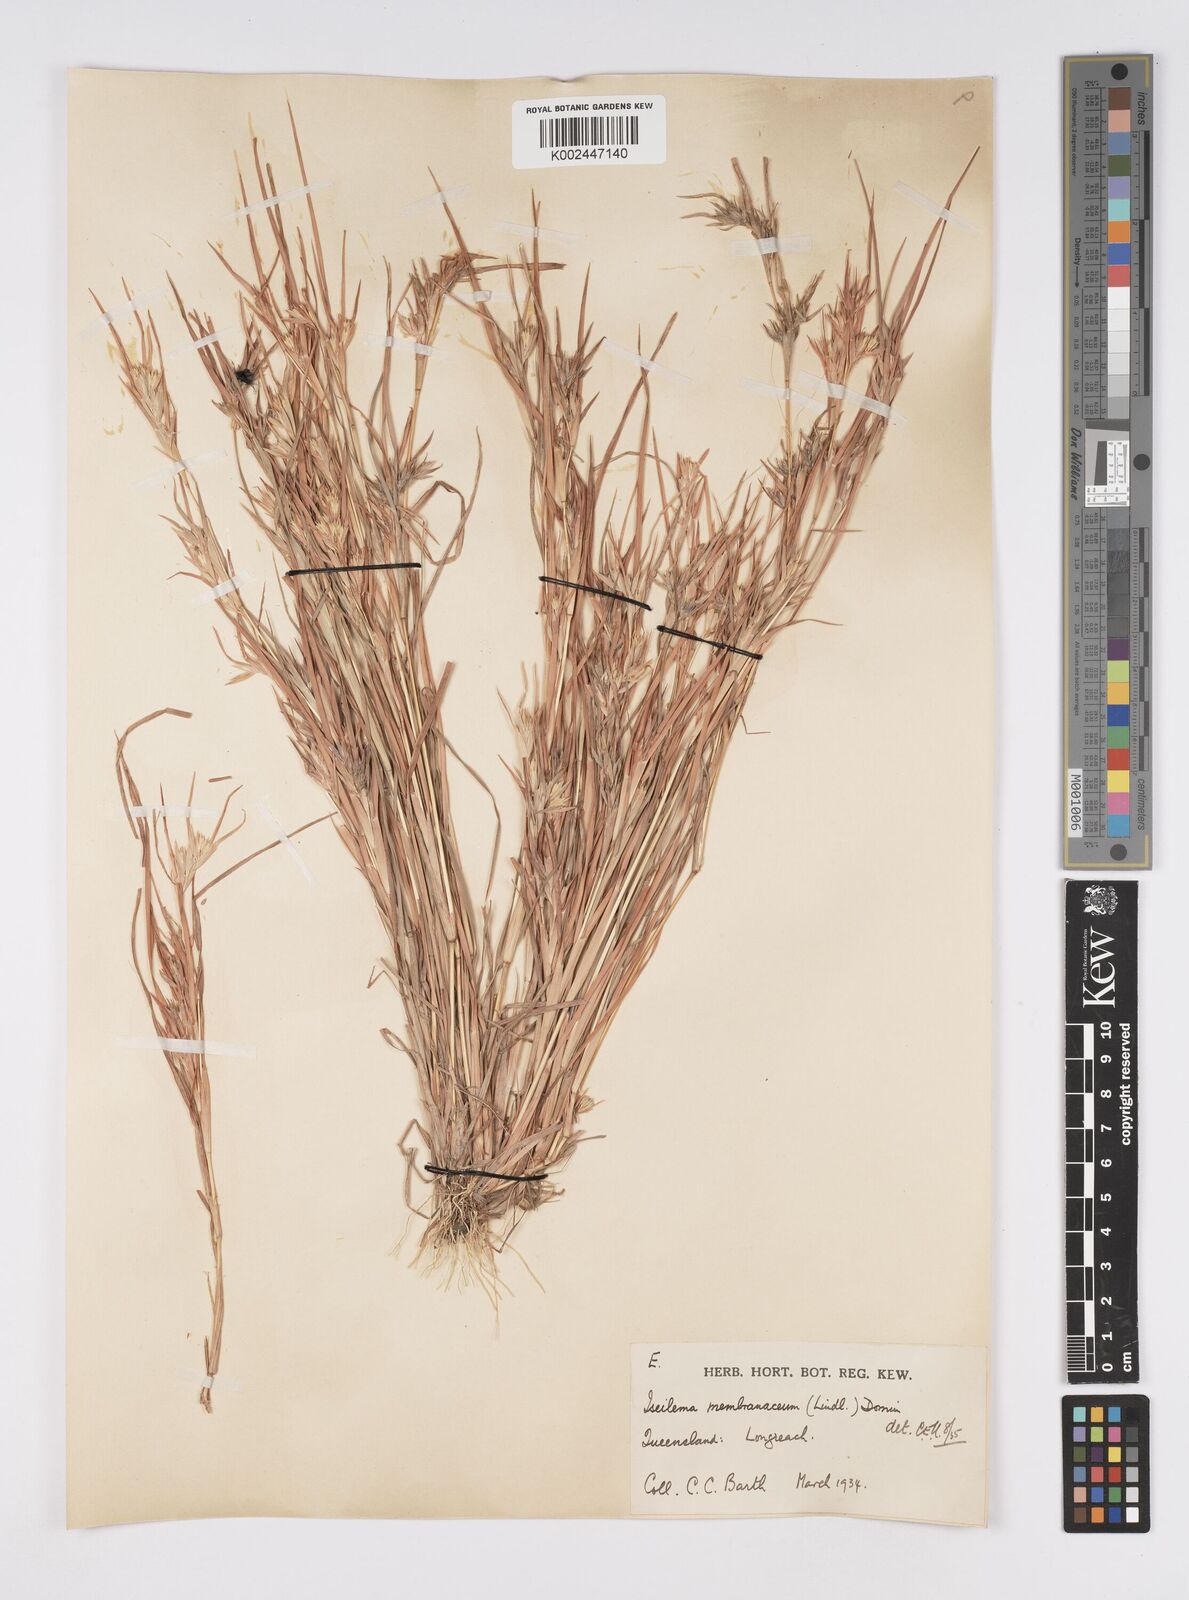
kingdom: Plantae
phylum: Tracheophyta
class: Liliopsida
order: Poales
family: Poaceae
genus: Iseilema
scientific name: Iseilema membranaceum
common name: Small flinders grass
